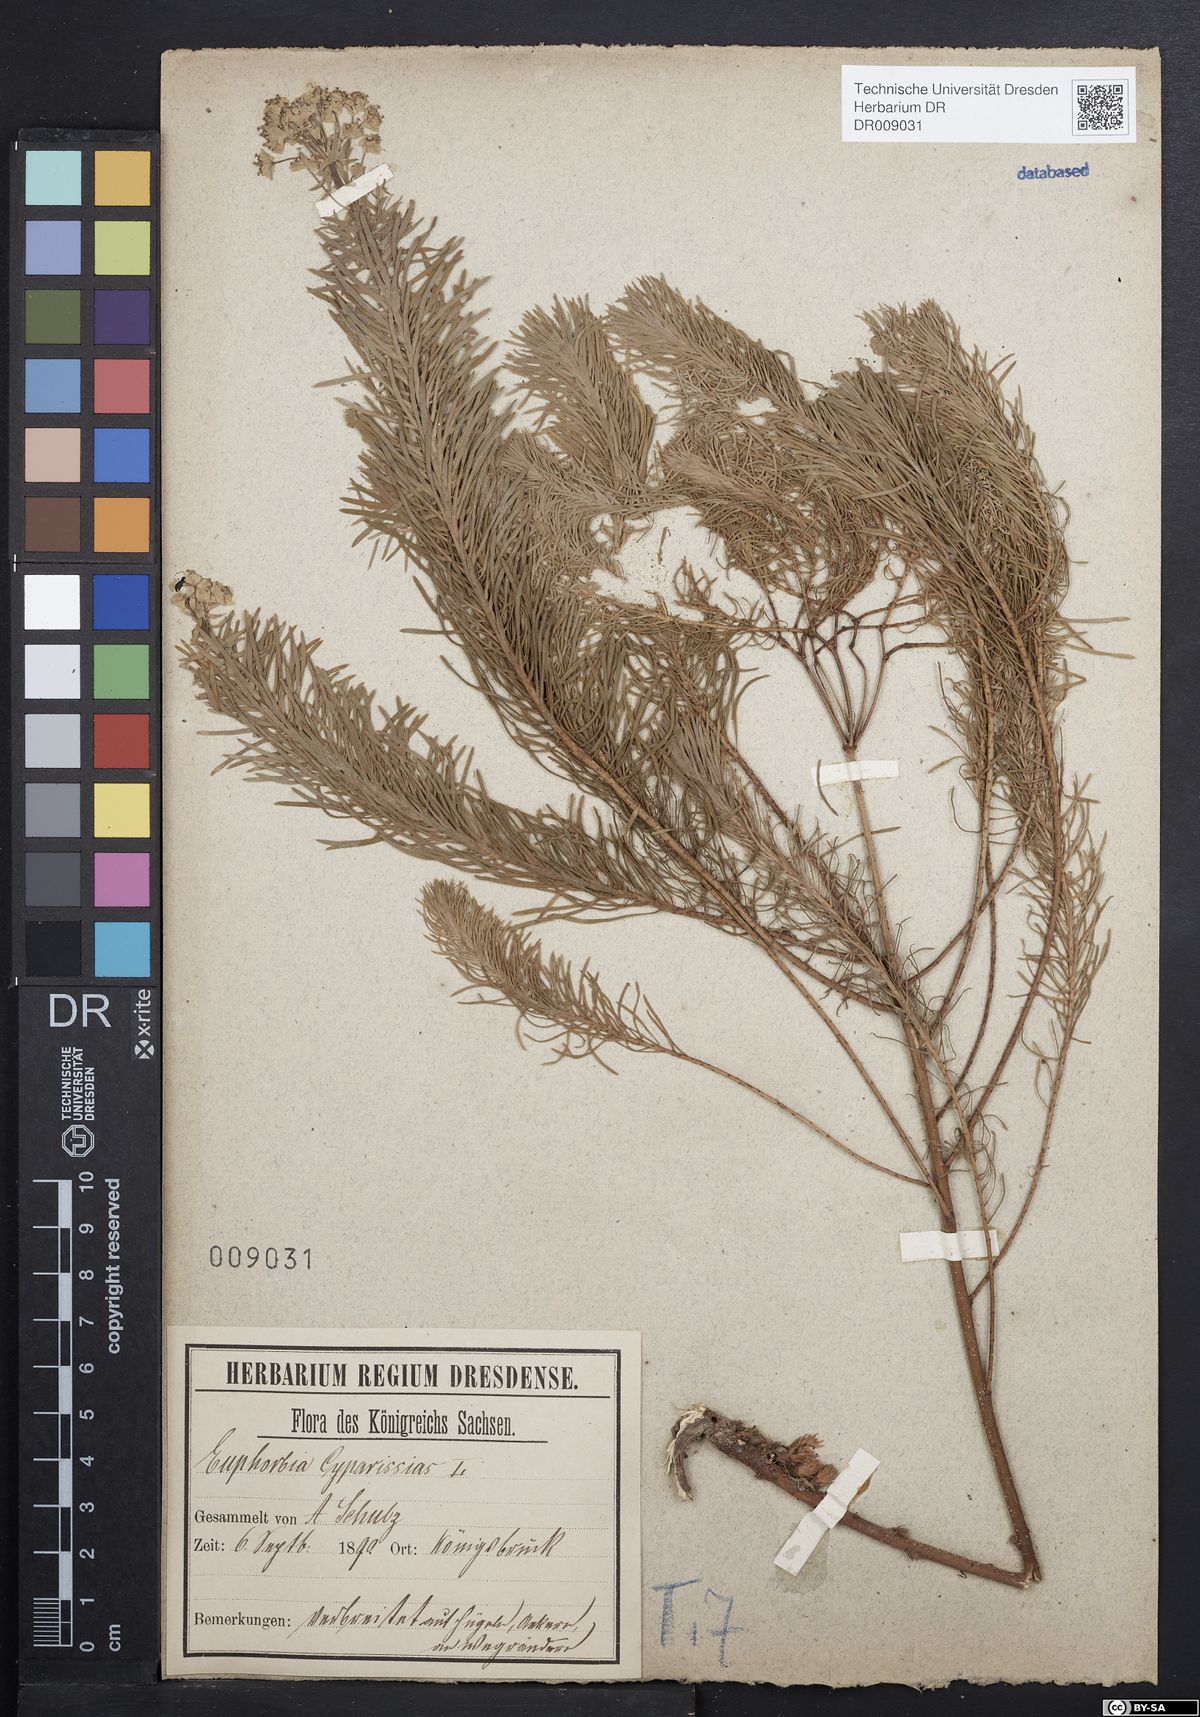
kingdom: Plantae
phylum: Tracheophyta
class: Magnoliopsida
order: Malpighiales
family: Euphorbiaceae
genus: Euphorbia
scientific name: Euphorbia cyparissias
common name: Cypress spurge
